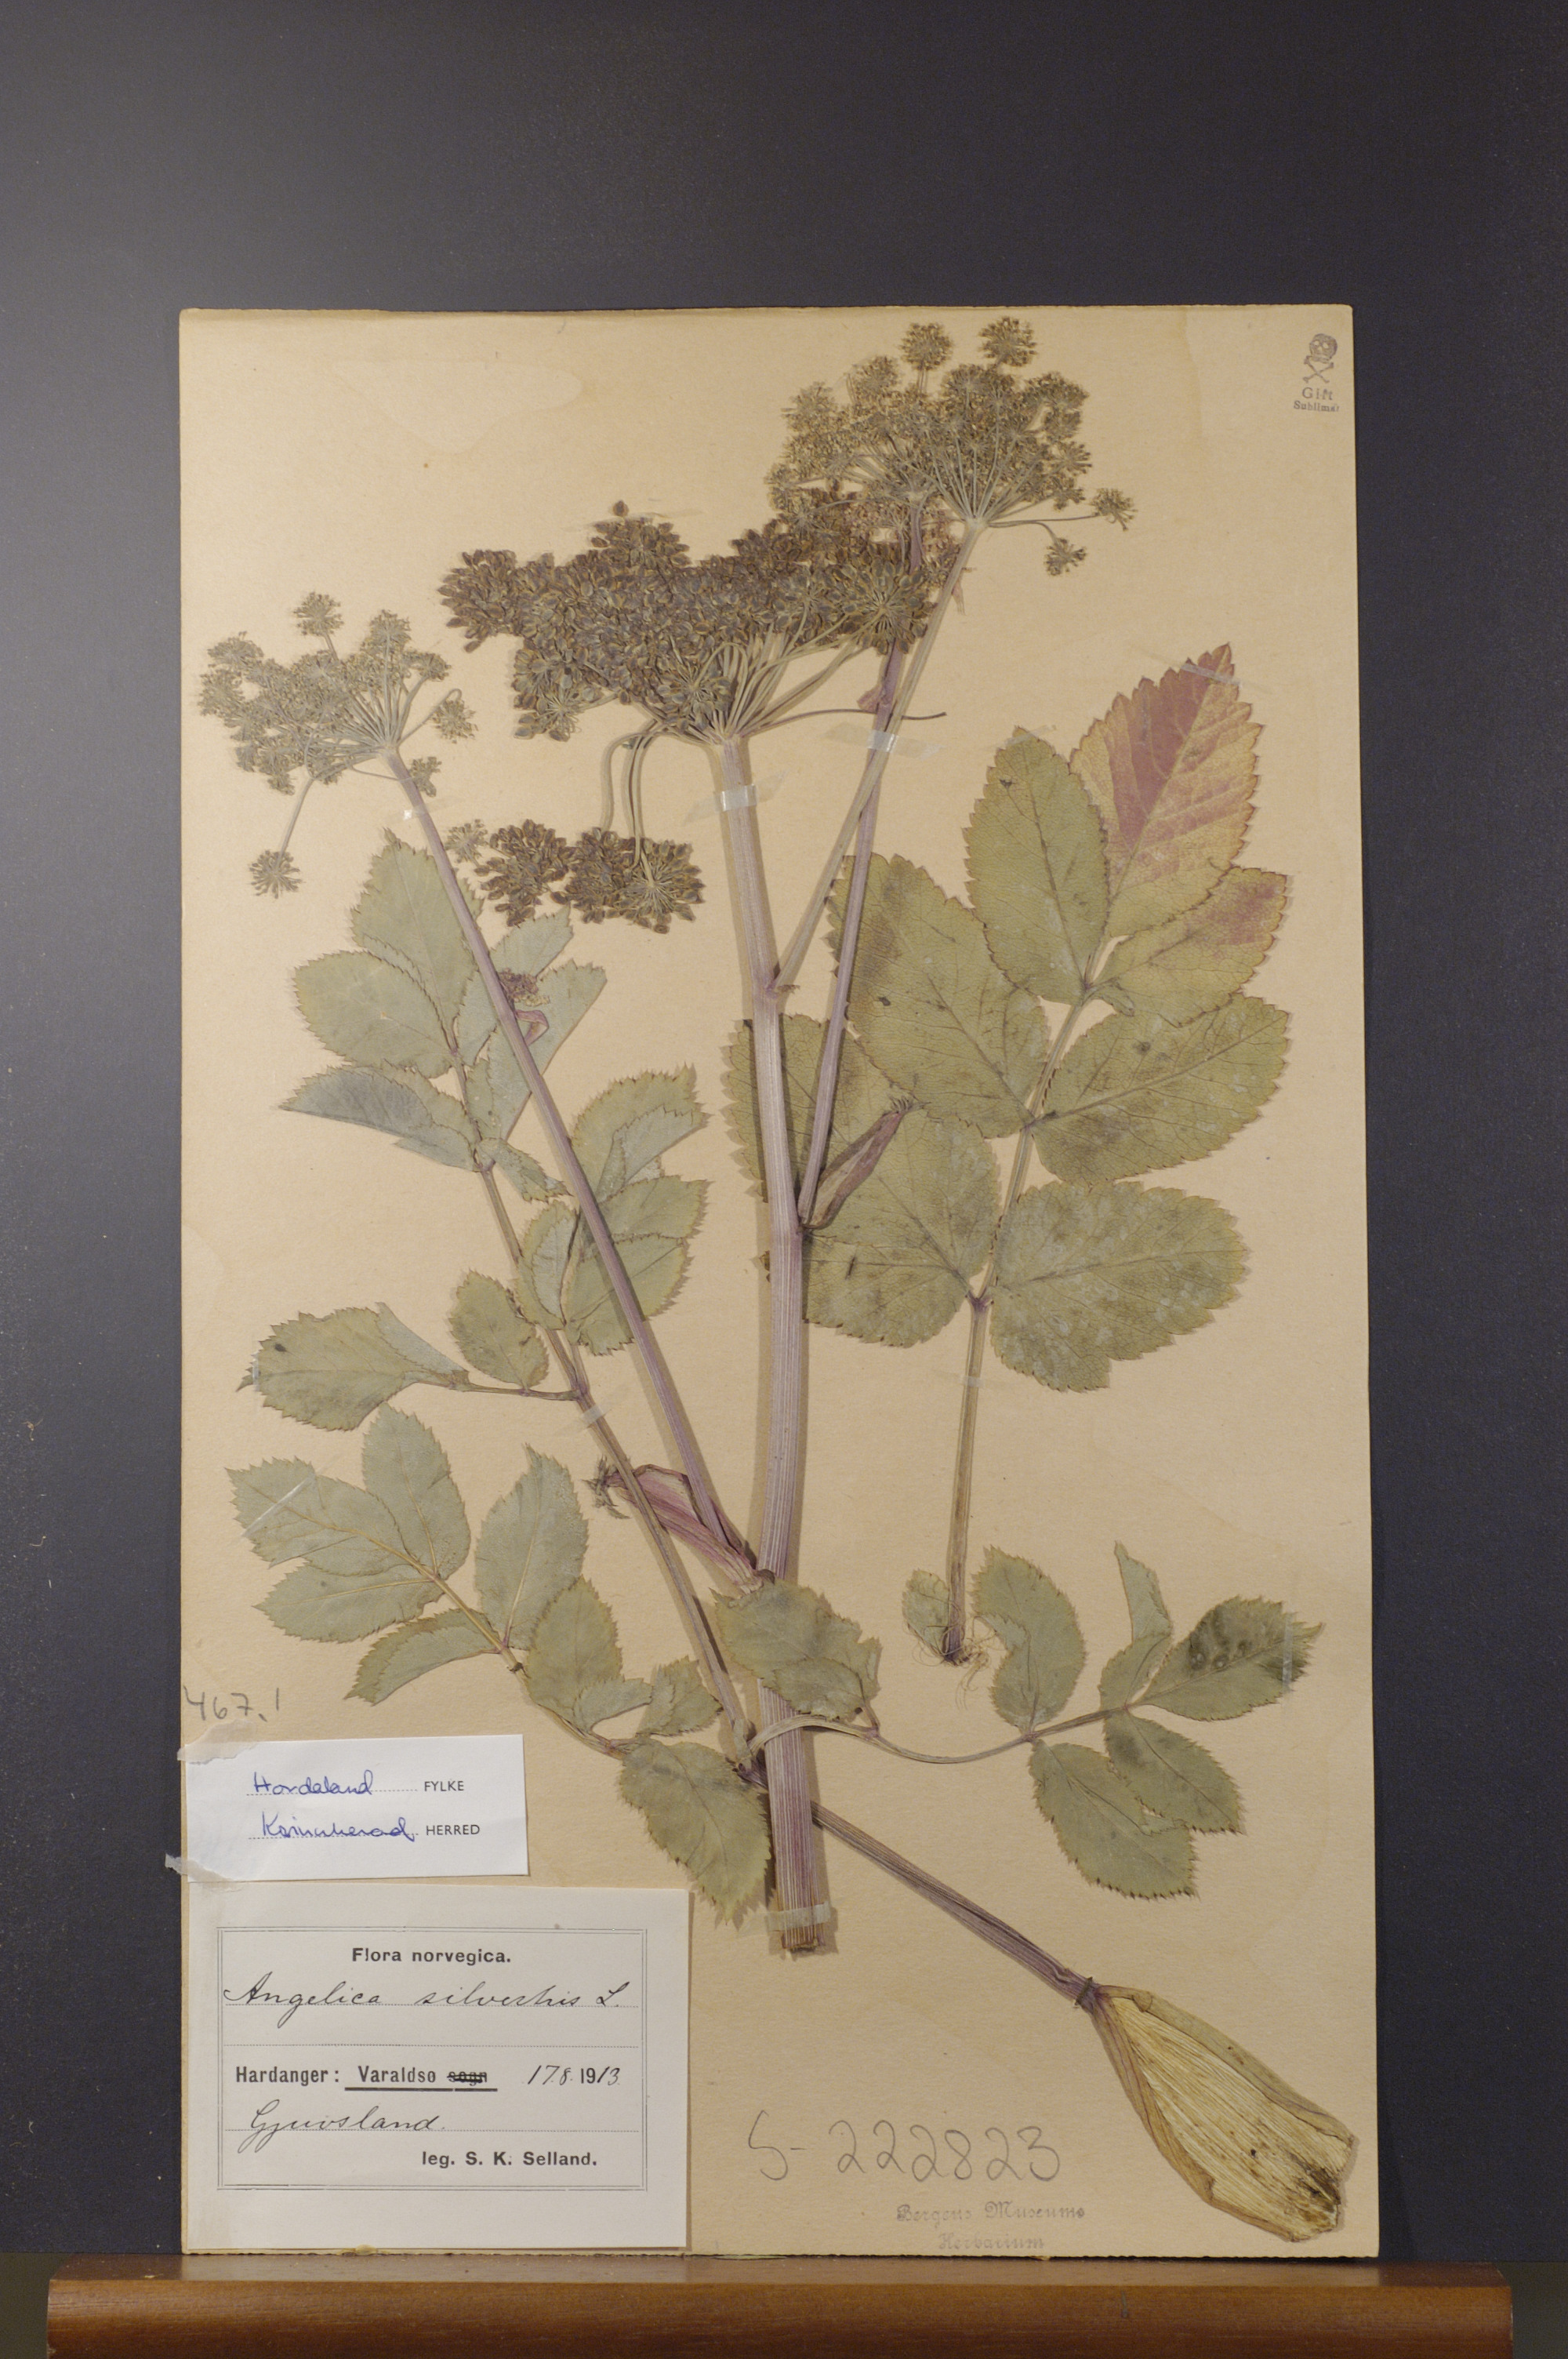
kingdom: Plantae
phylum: Tracheophyta
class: Magnoliopsida
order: Apiales
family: Apiaceae
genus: Angelica
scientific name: Angelica sylvestris
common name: Wild angelica
